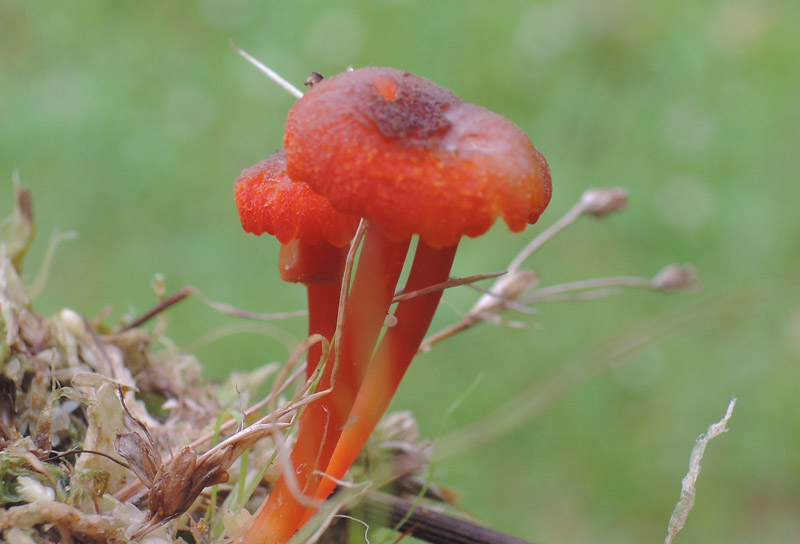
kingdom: Fungi
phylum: Basidiomycota
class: Agaricomycetes
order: Agaricales
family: Hygrophoraceae
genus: Hygrocybe
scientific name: Hygrocybe coccineocrenata
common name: tørvemos-vokshat
